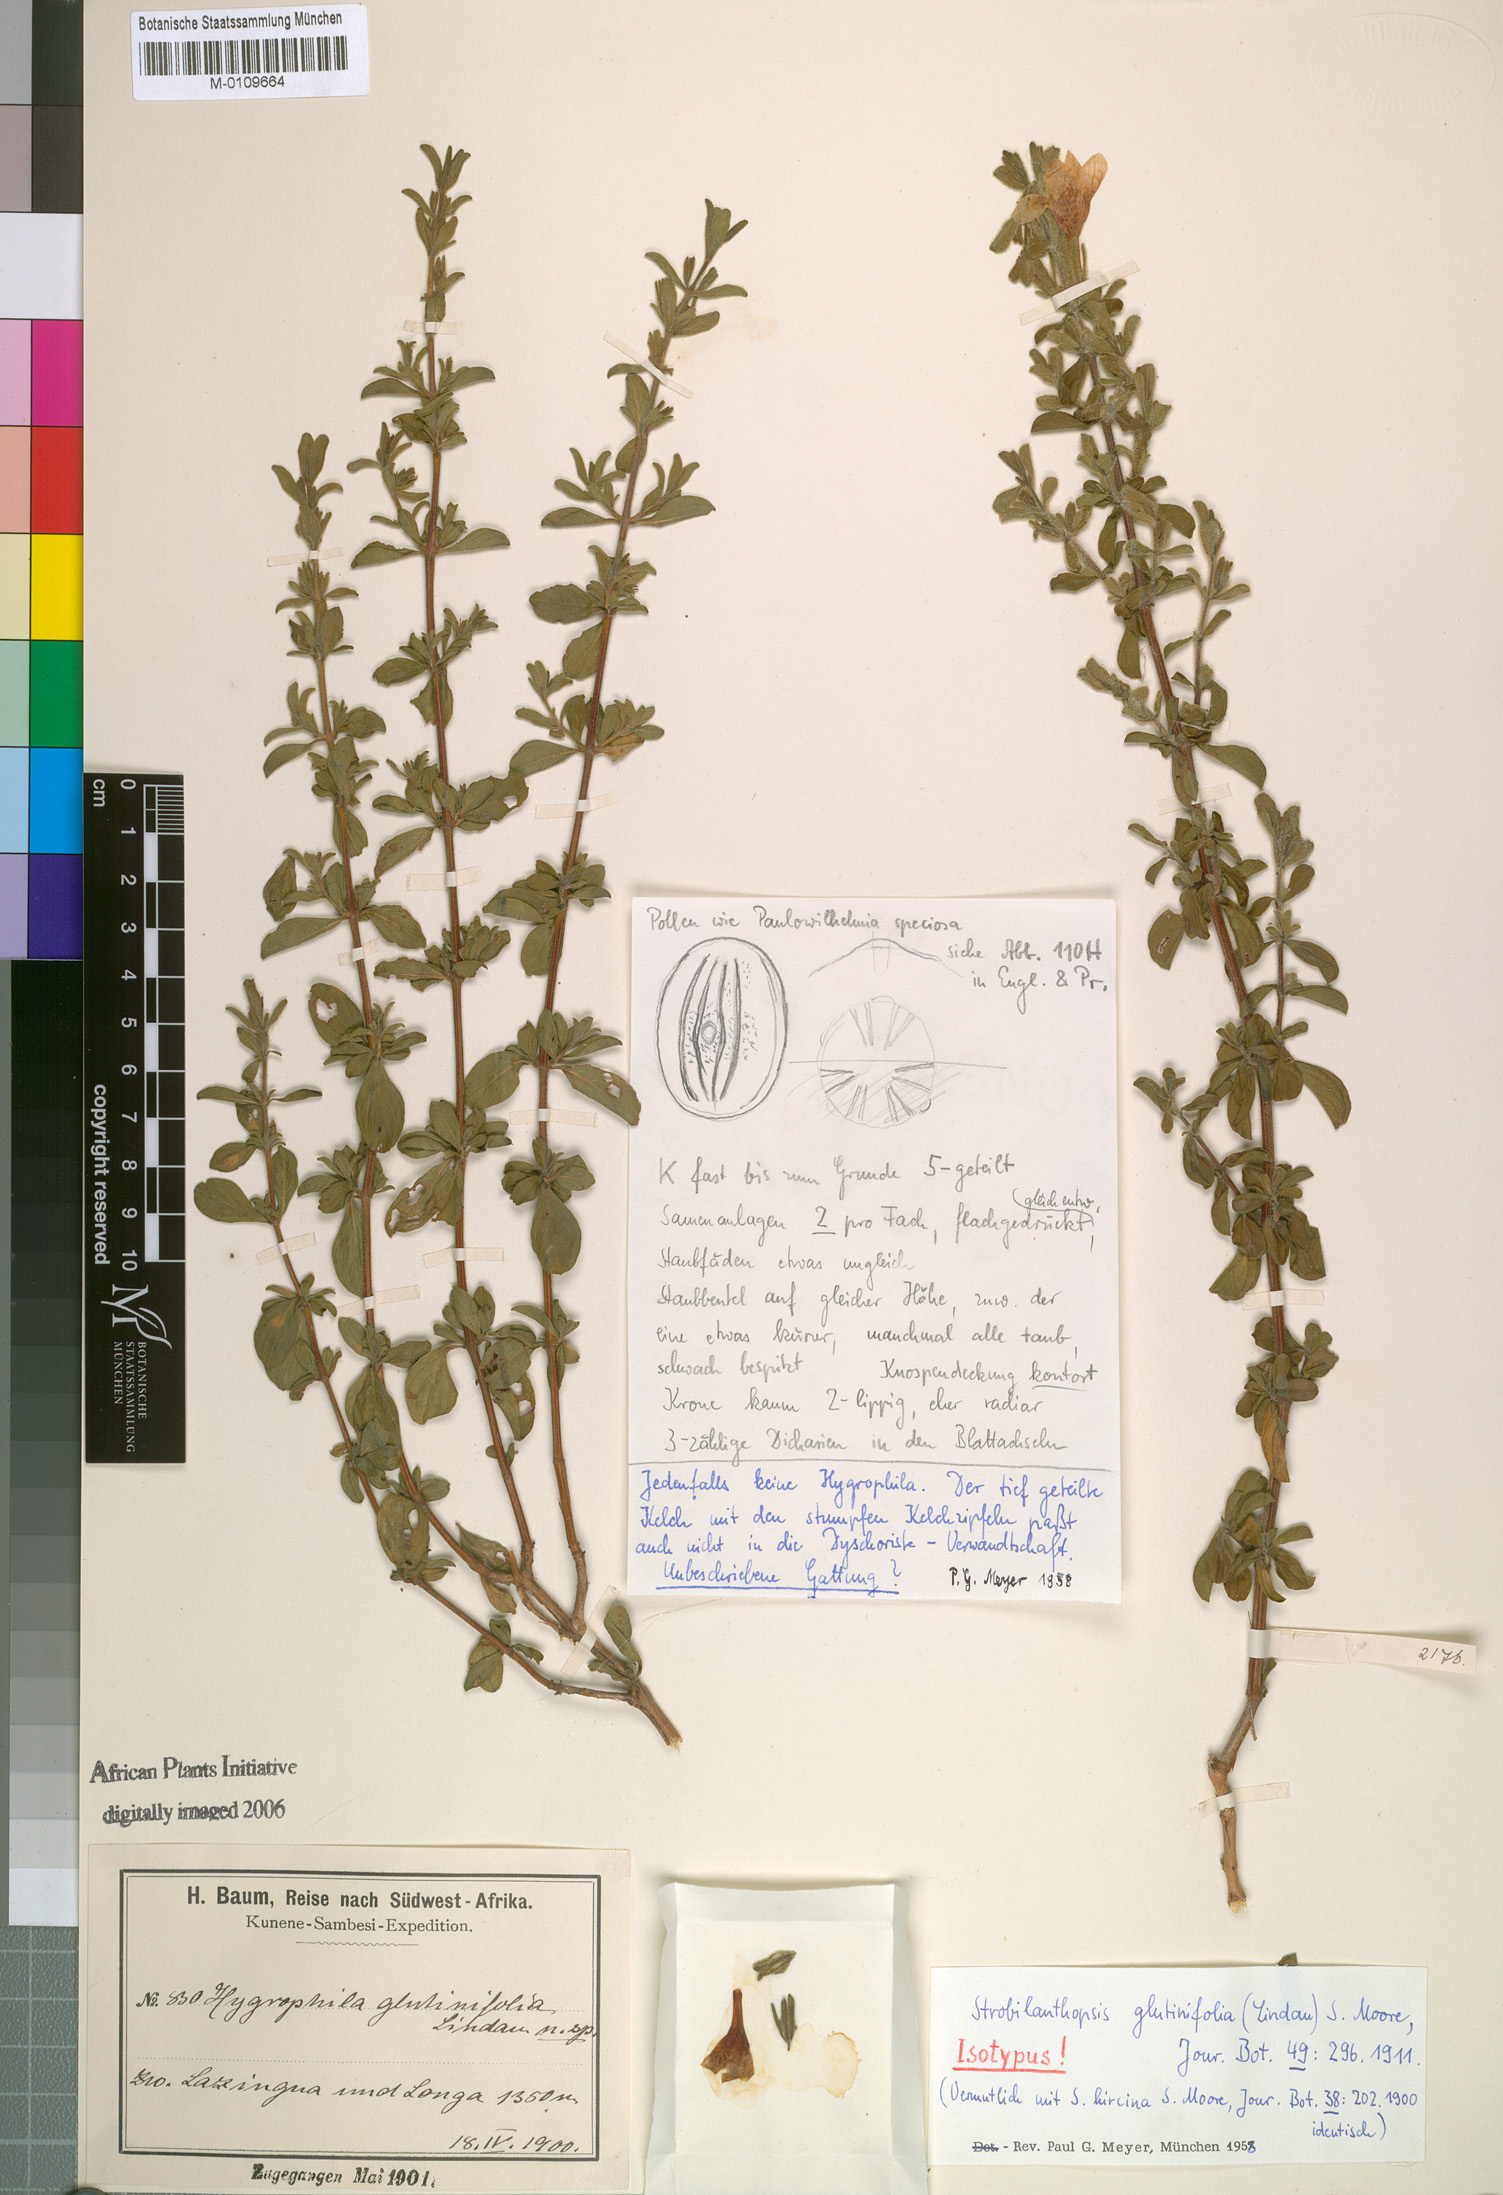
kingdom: Plantae
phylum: Tracheophyta
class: Magnoliopsida
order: Lamiales
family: Acanthaceae
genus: Strobilanthopsis
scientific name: Strobilanthopsis linifolia
